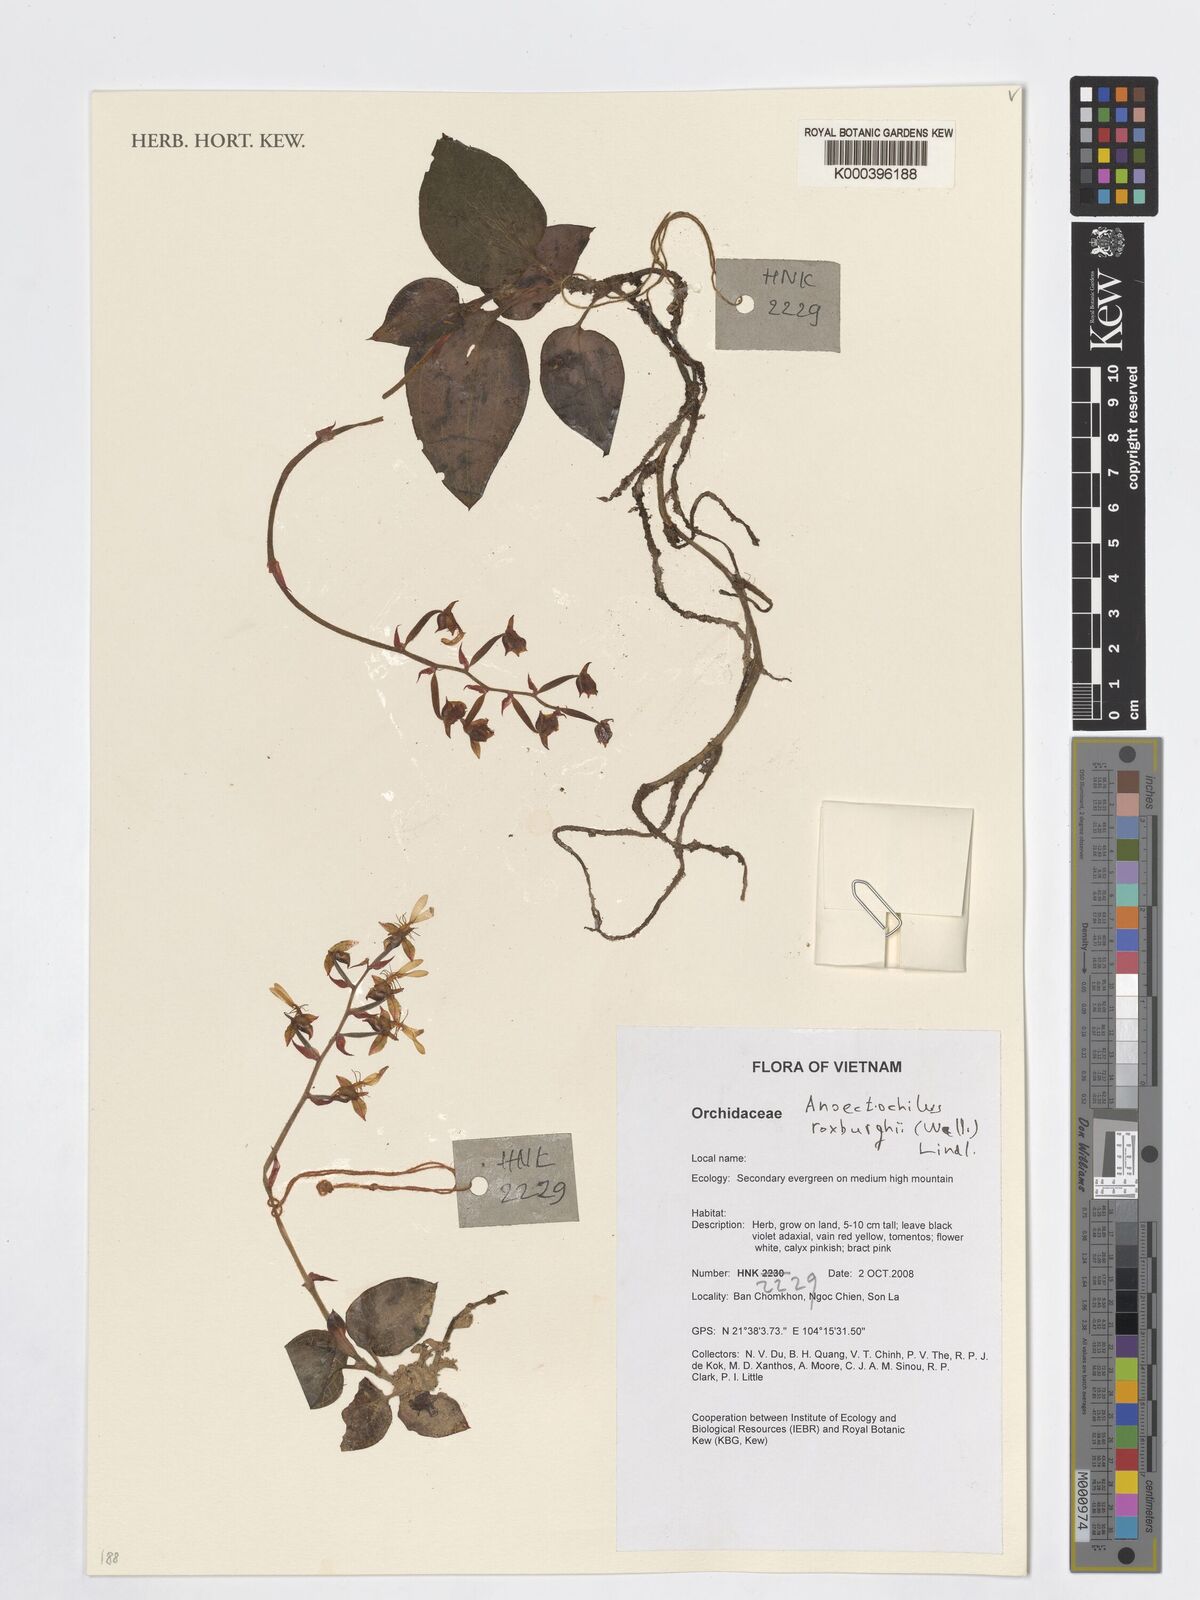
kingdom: Plantae
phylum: Tracheophyta
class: Liliopsida
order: Asparagales
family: Orchidaceae
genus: Anoectochilus
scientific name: Anoectochilus roxburghii
